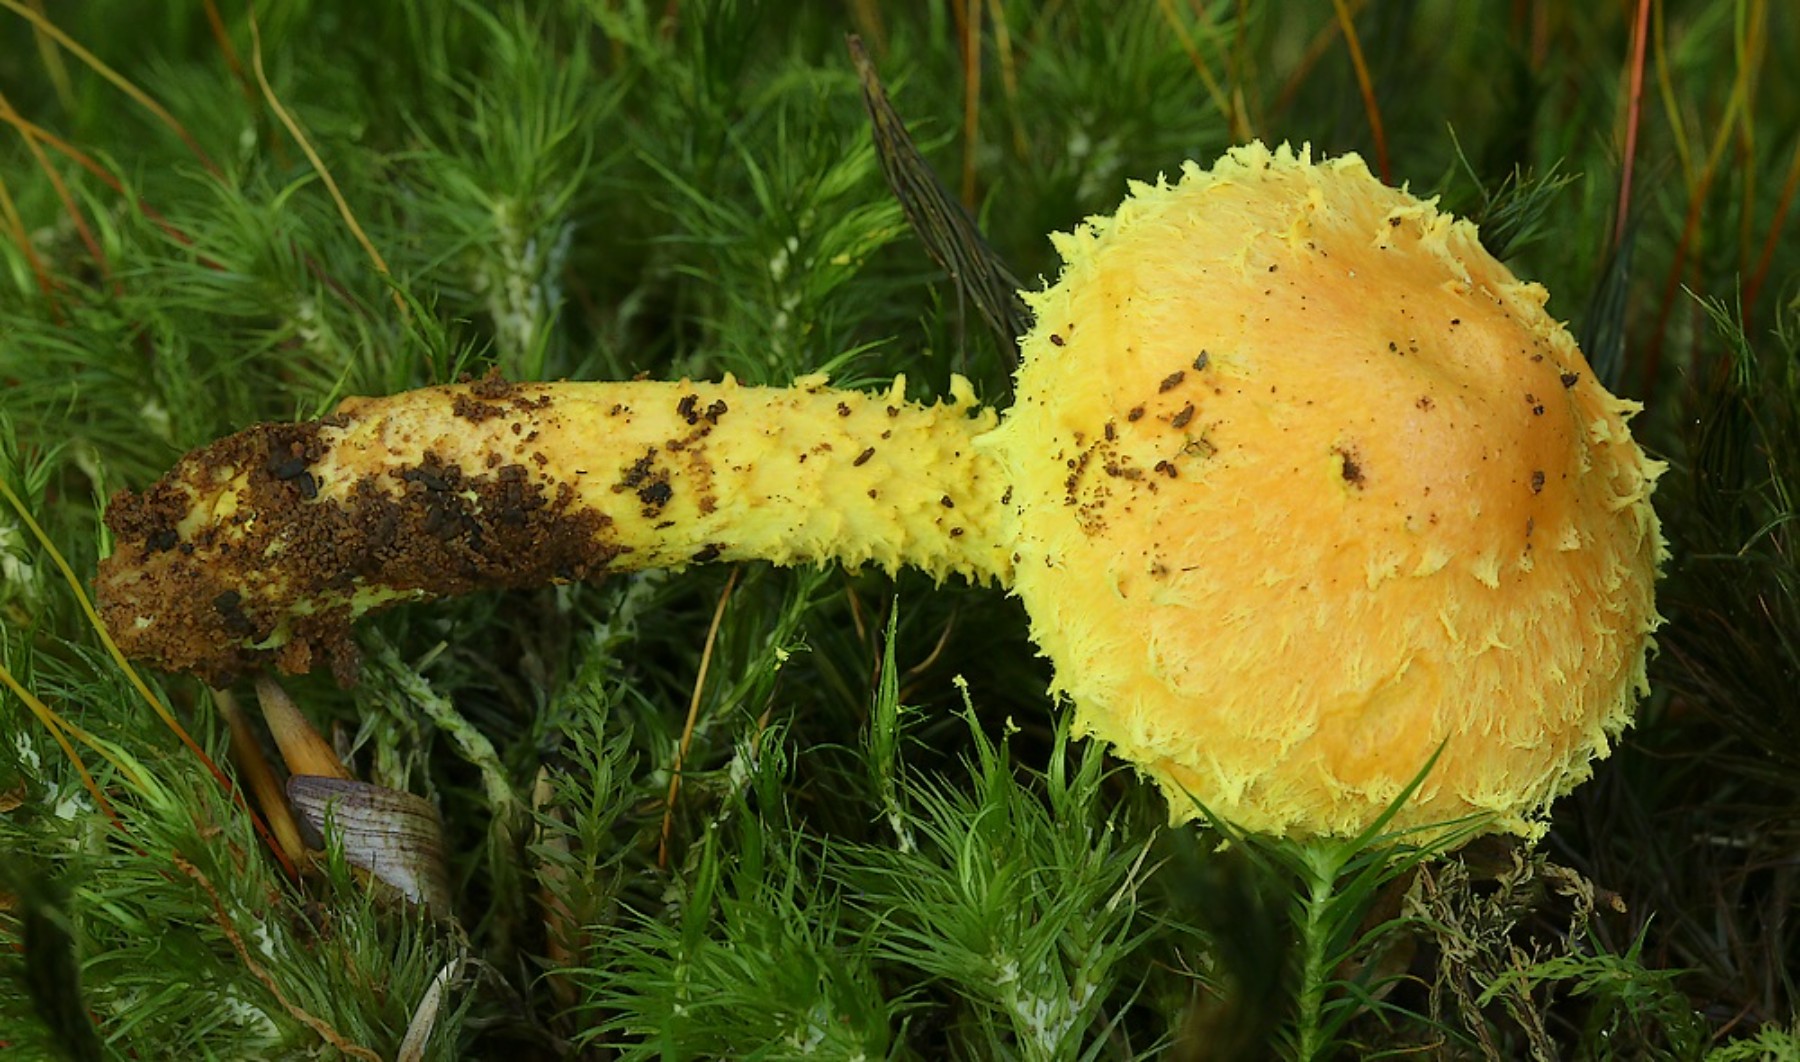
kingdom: Fungi
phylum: Basidiomycota
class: Agaricomycetes
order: Agaricales
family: Strophariaceae
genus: Pholiota
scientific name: Pholiota flammans
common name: flamme-skælhat
